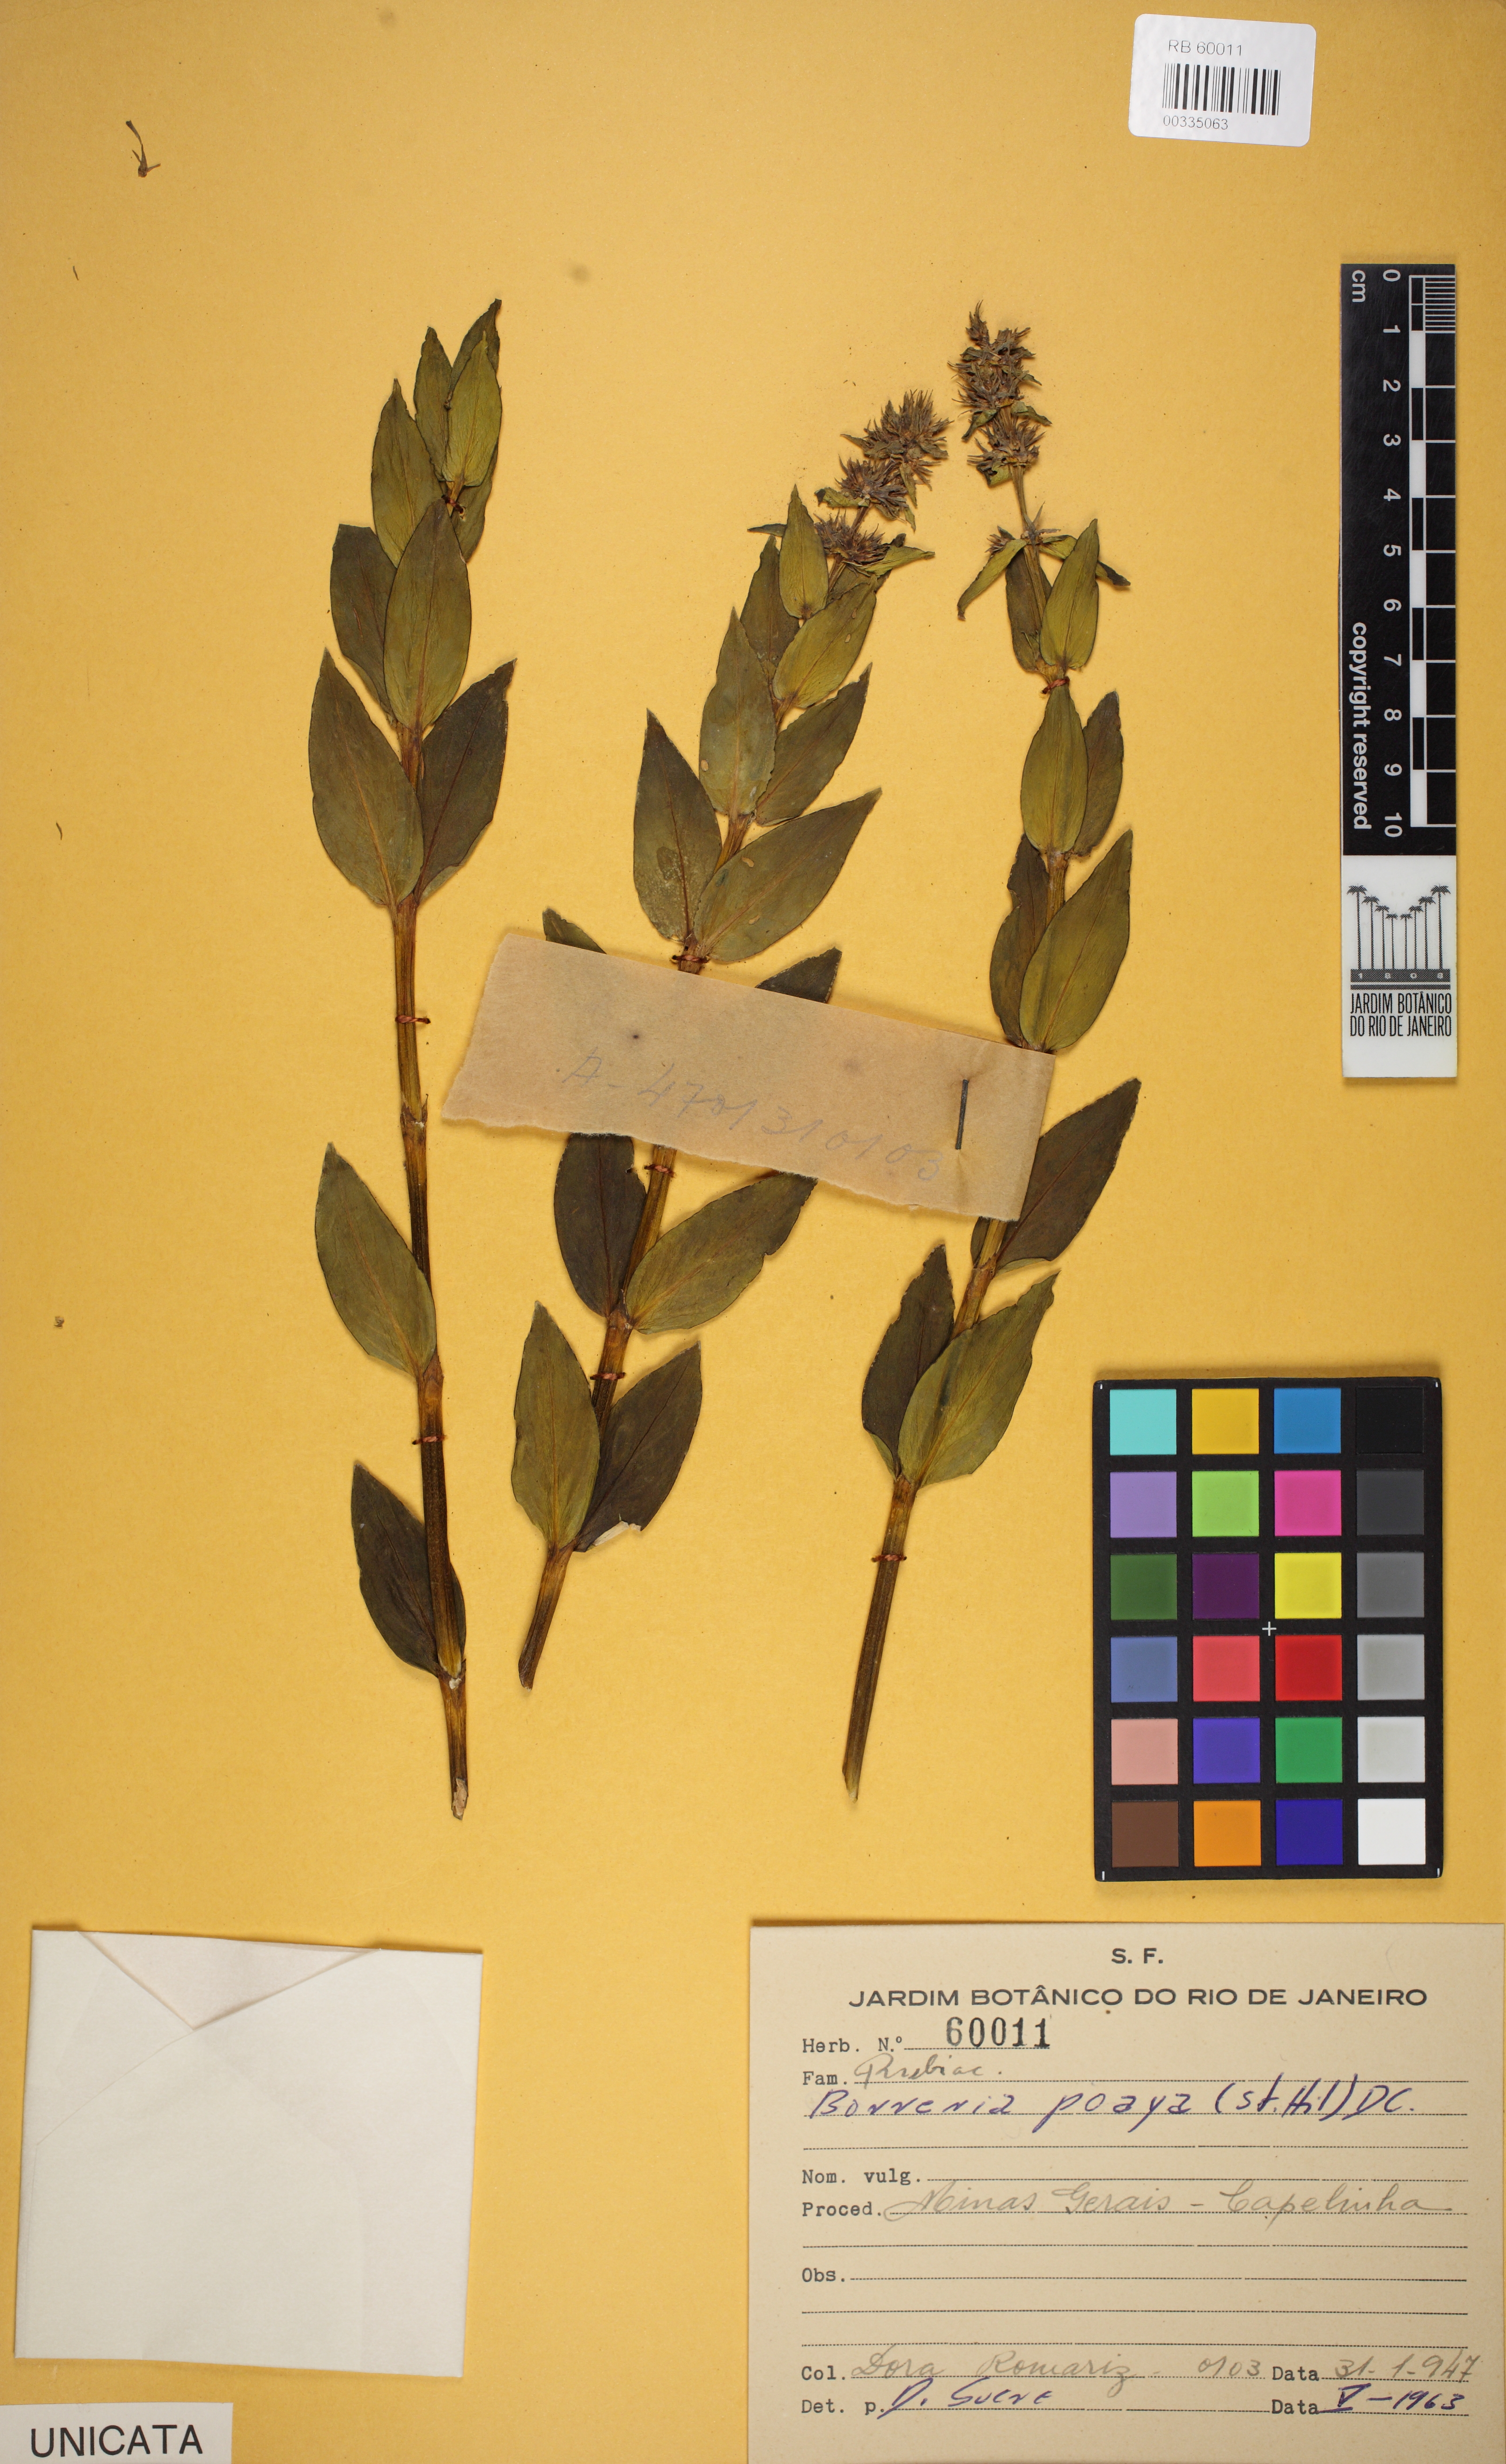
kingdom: Plantae
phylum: Tracheophyta
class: Magnoliopsida
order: Gentianales
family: Rubiaceae
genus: Spermacoce
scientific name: Spermacoce poaya
